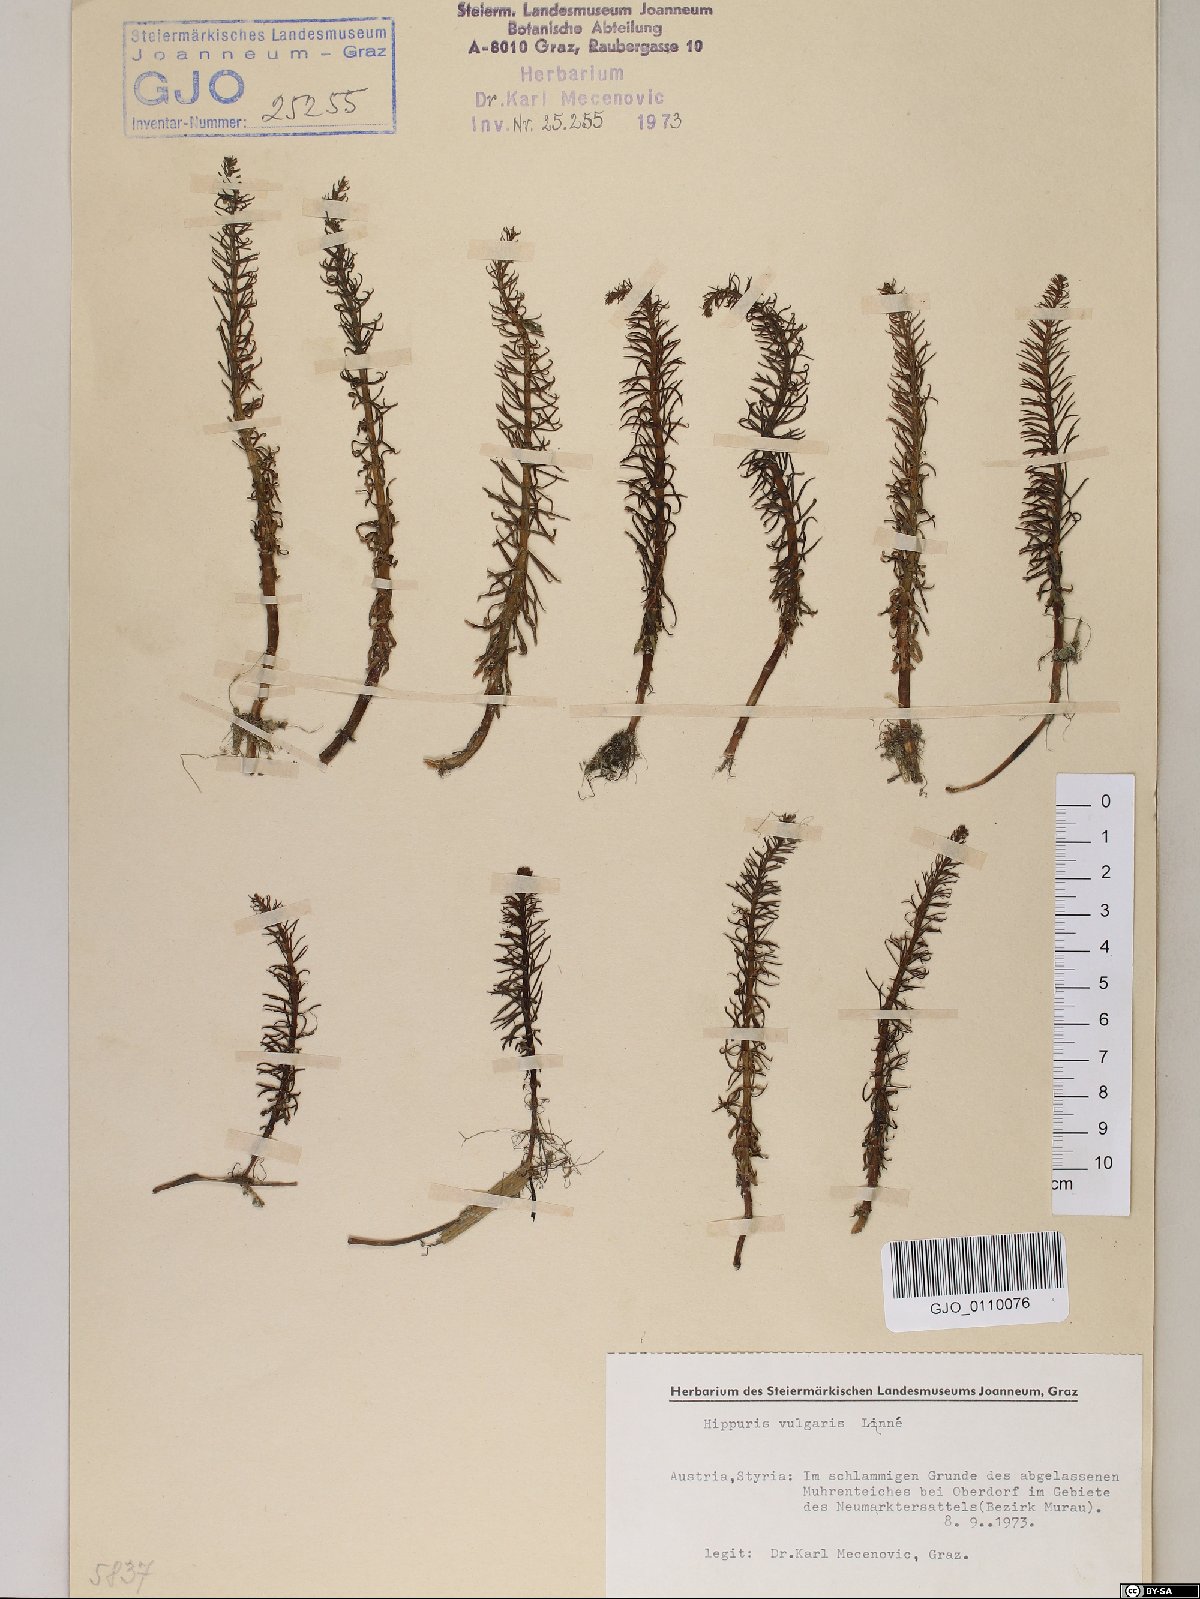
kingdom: Plantae
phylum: Tracheophyta
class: Magnoliopsida
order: Lamiales
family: Plantaginaceae
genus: Hippuris
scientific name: Hippuris vulgaris
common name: Mare's-tail
